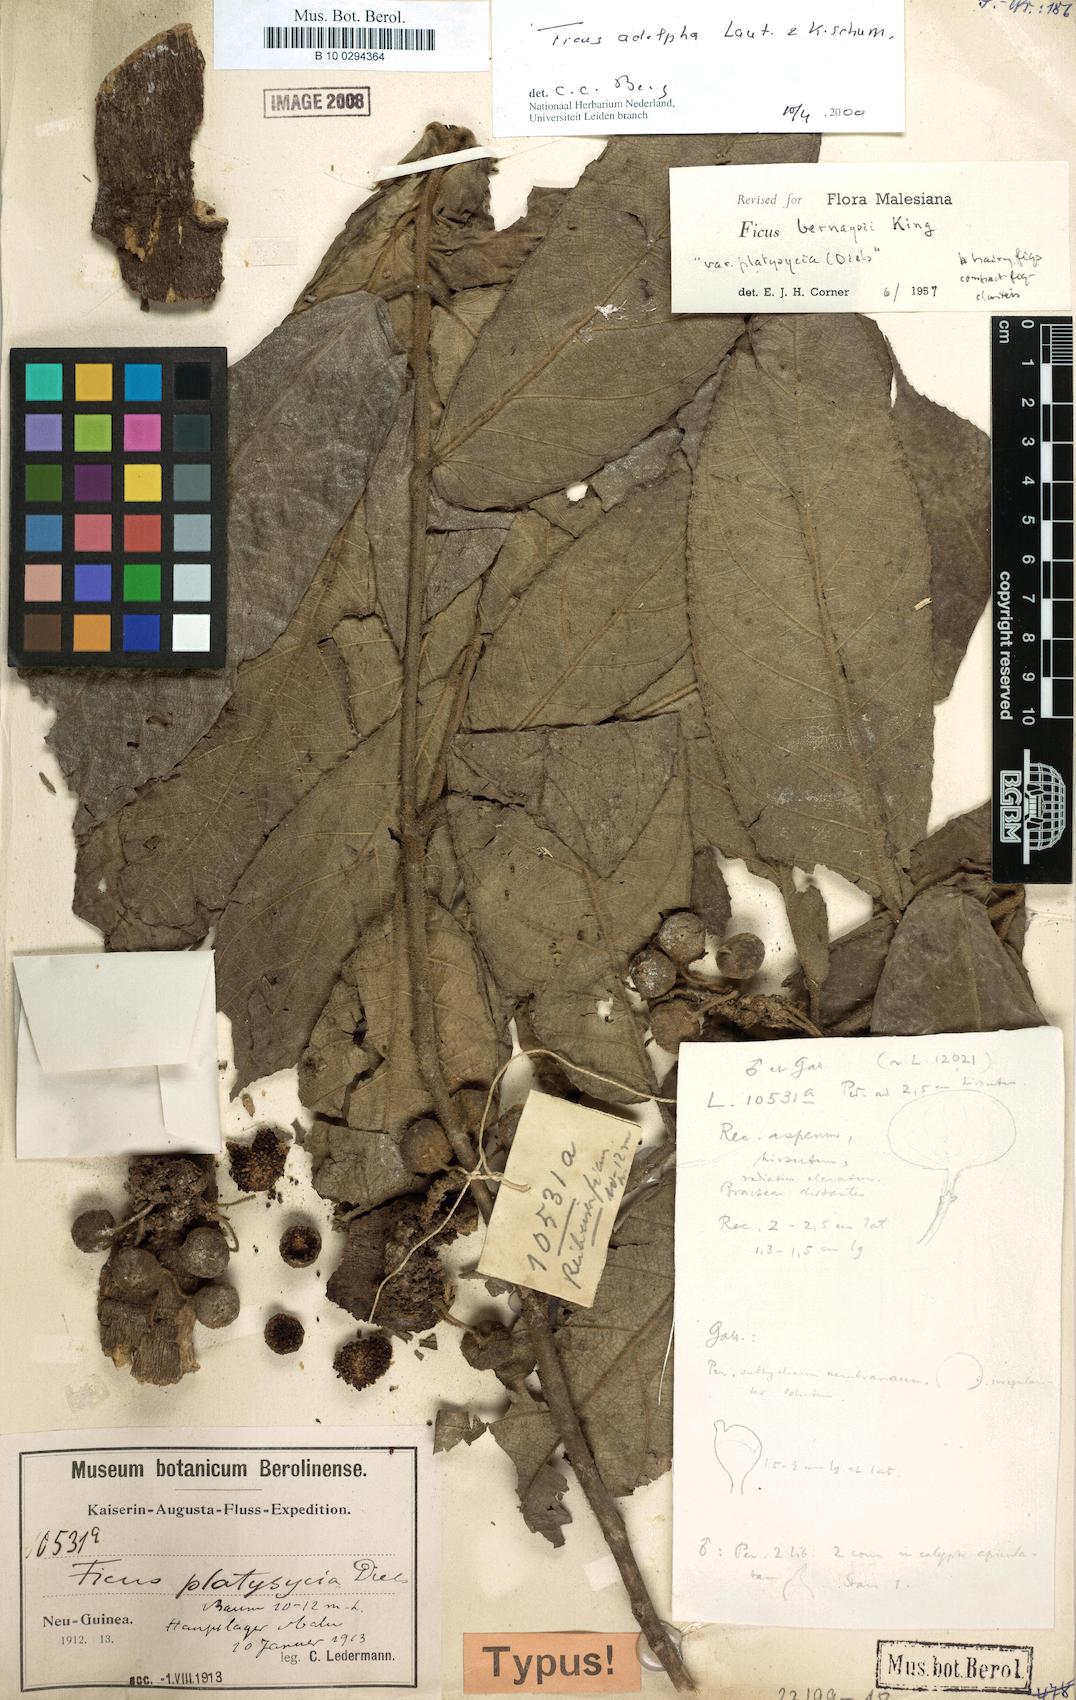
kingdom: Plantae
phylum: Tracheophyta
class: Magnoliopsida
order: Rosales
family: Moraceae
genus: Ficus
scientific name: Ficus adelpha
